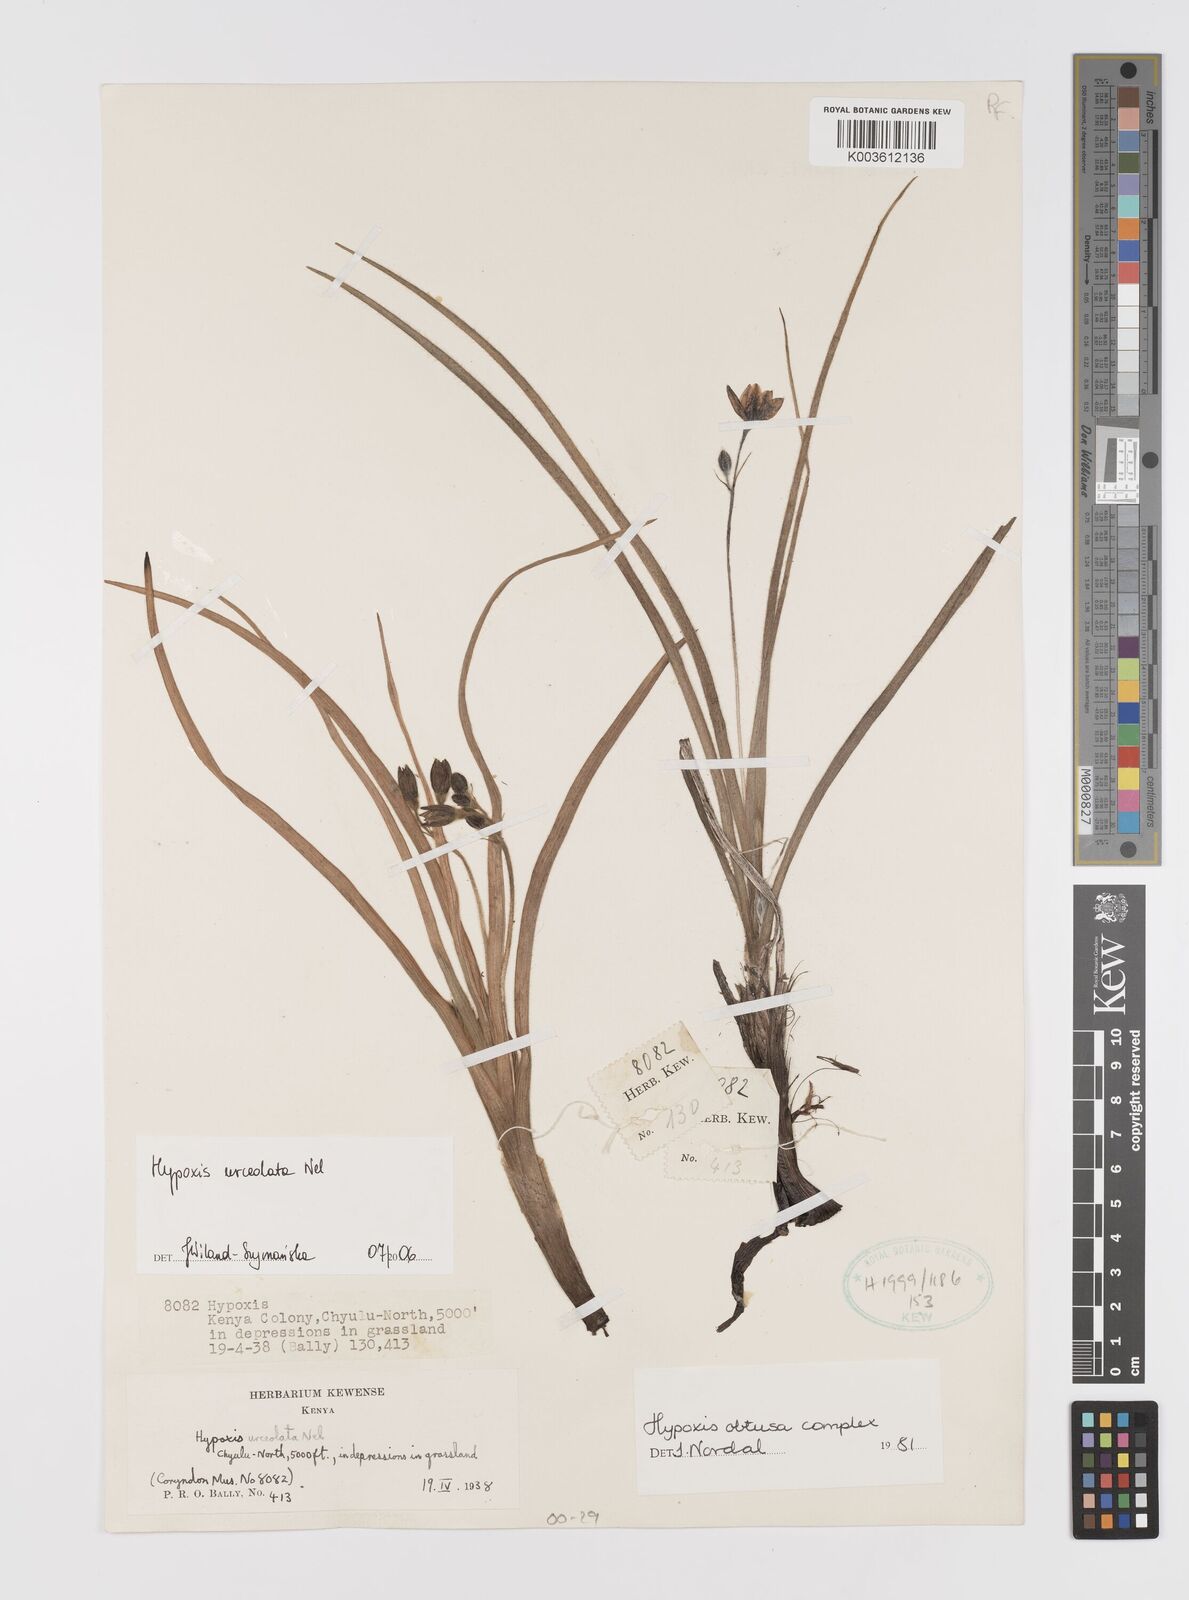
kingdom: Plantae
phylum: Tracheophyta
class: Liliopsida
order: Asparagales
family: Hypoxidaceae
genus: Hypoxis
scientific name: Hypoxis urceolata
